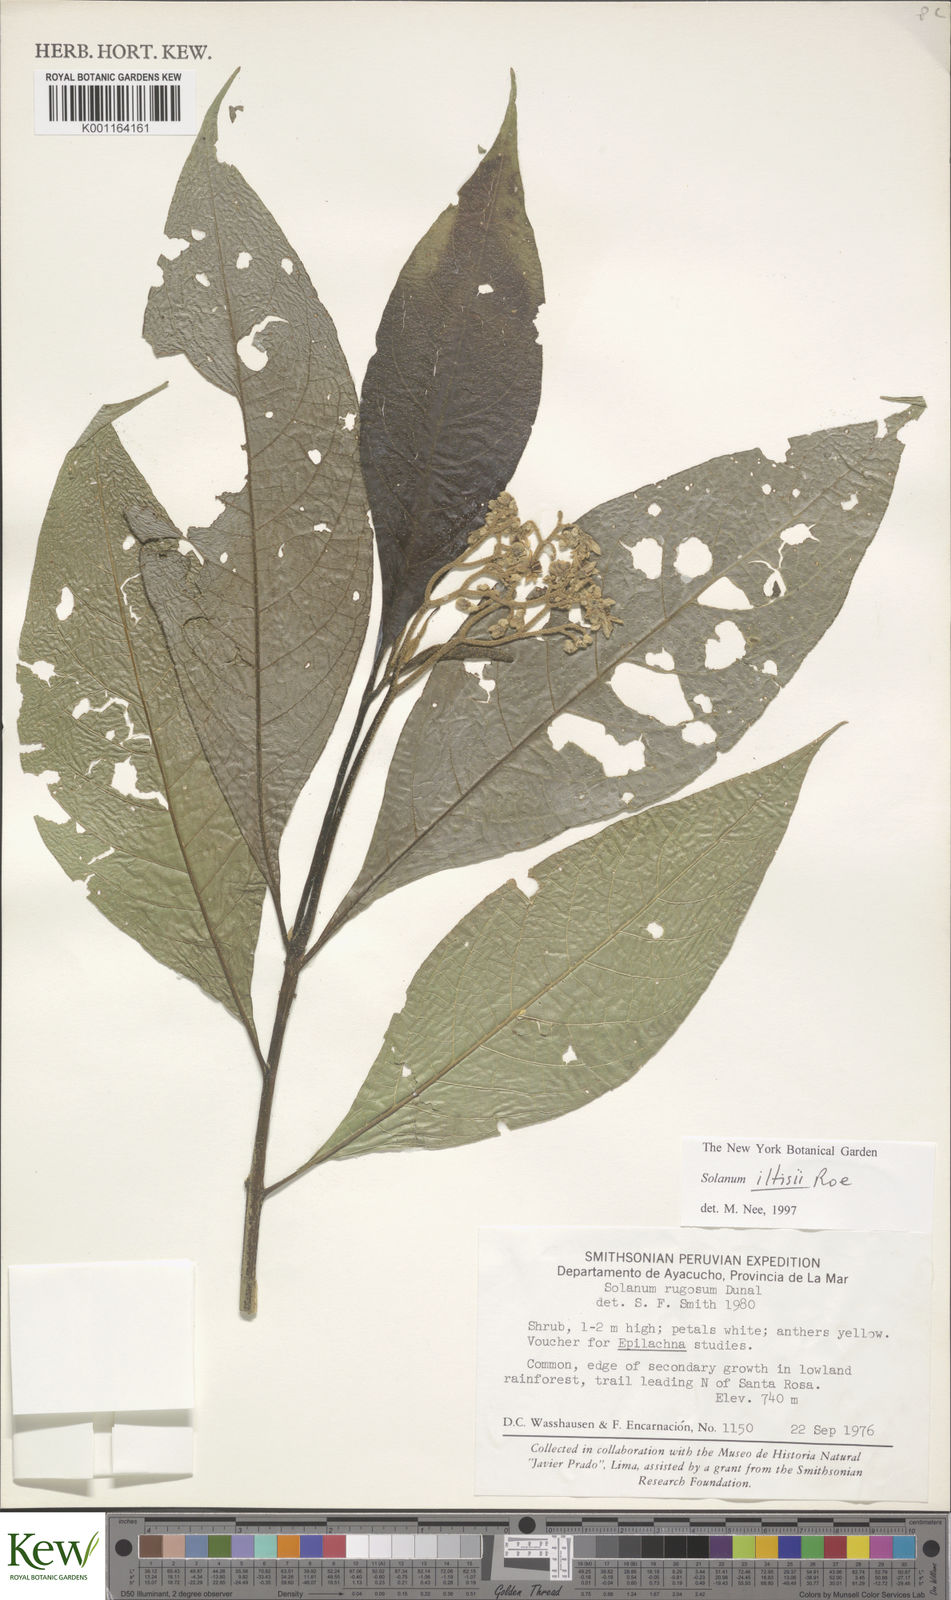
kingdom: Plantae
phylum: Tracheophyta
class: Magnoliopsida
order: Solanales
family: Solanaceae
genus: Solanum
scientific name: Solanum iltisii
